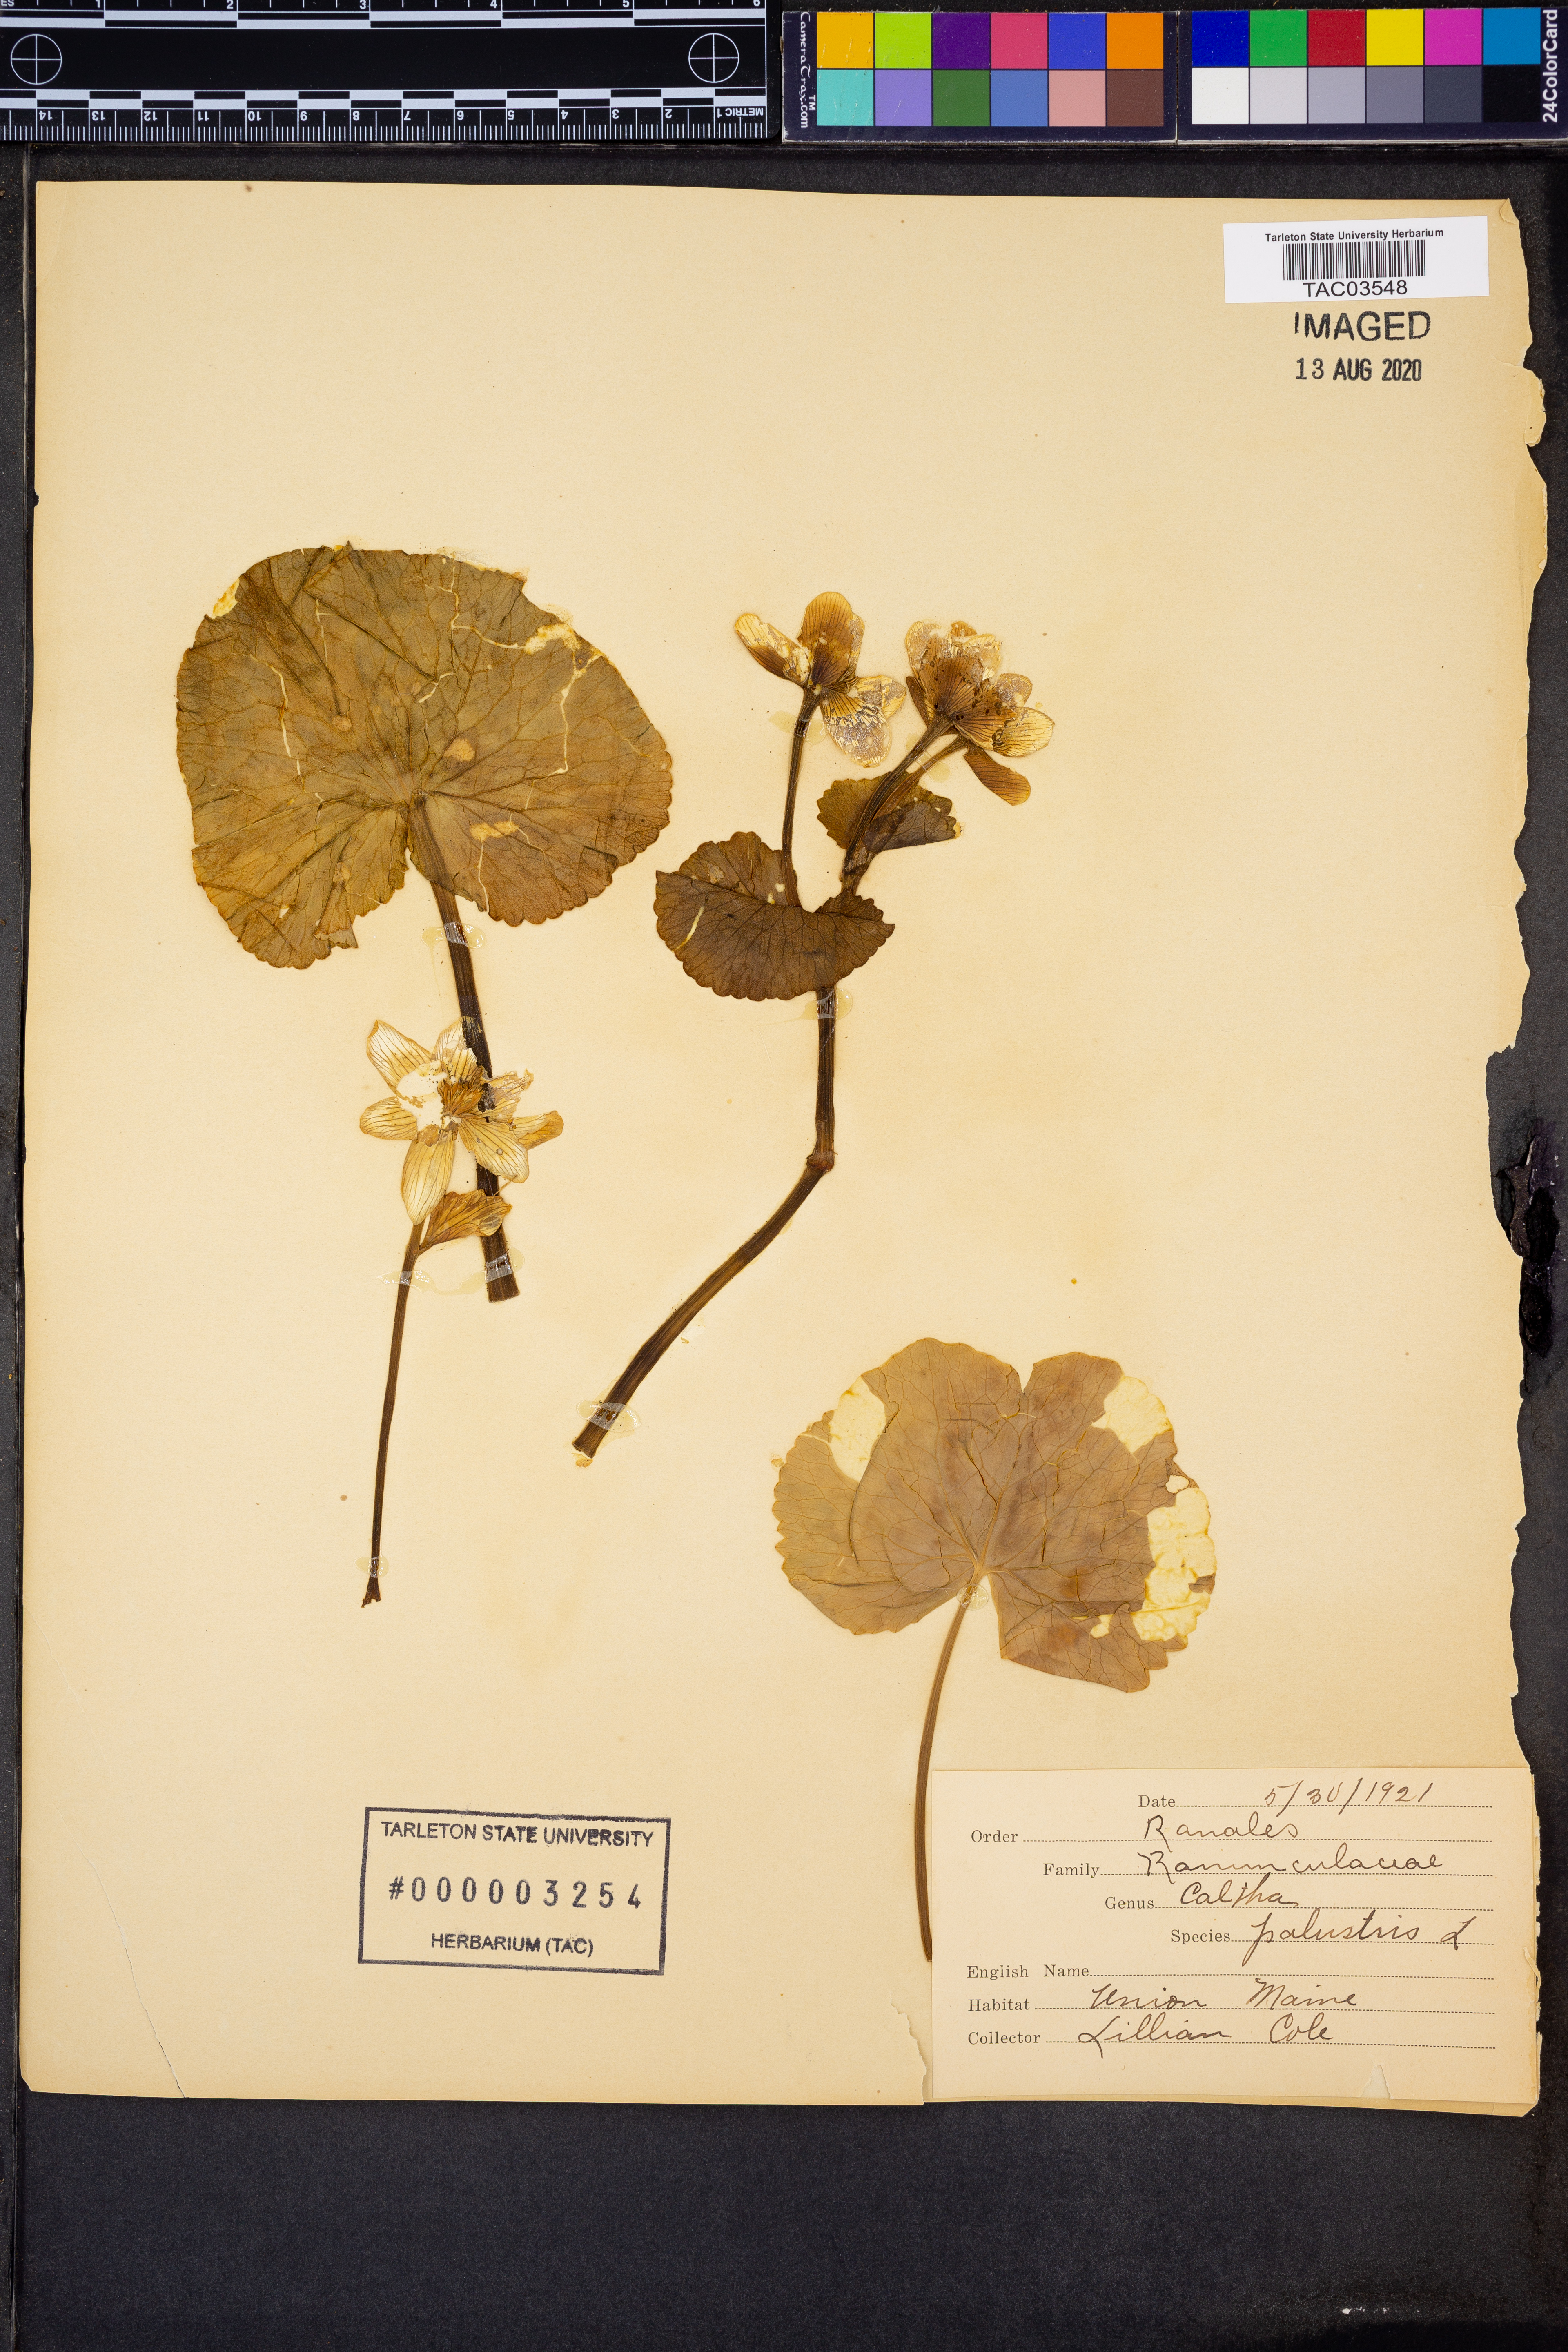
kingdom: Plantae
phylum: Tracheophyta
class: Magnoliopsida
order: Ranunculales
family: Ranunculaceae
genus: Caltha
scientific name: Caltha palustris
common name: Marsh marigold
